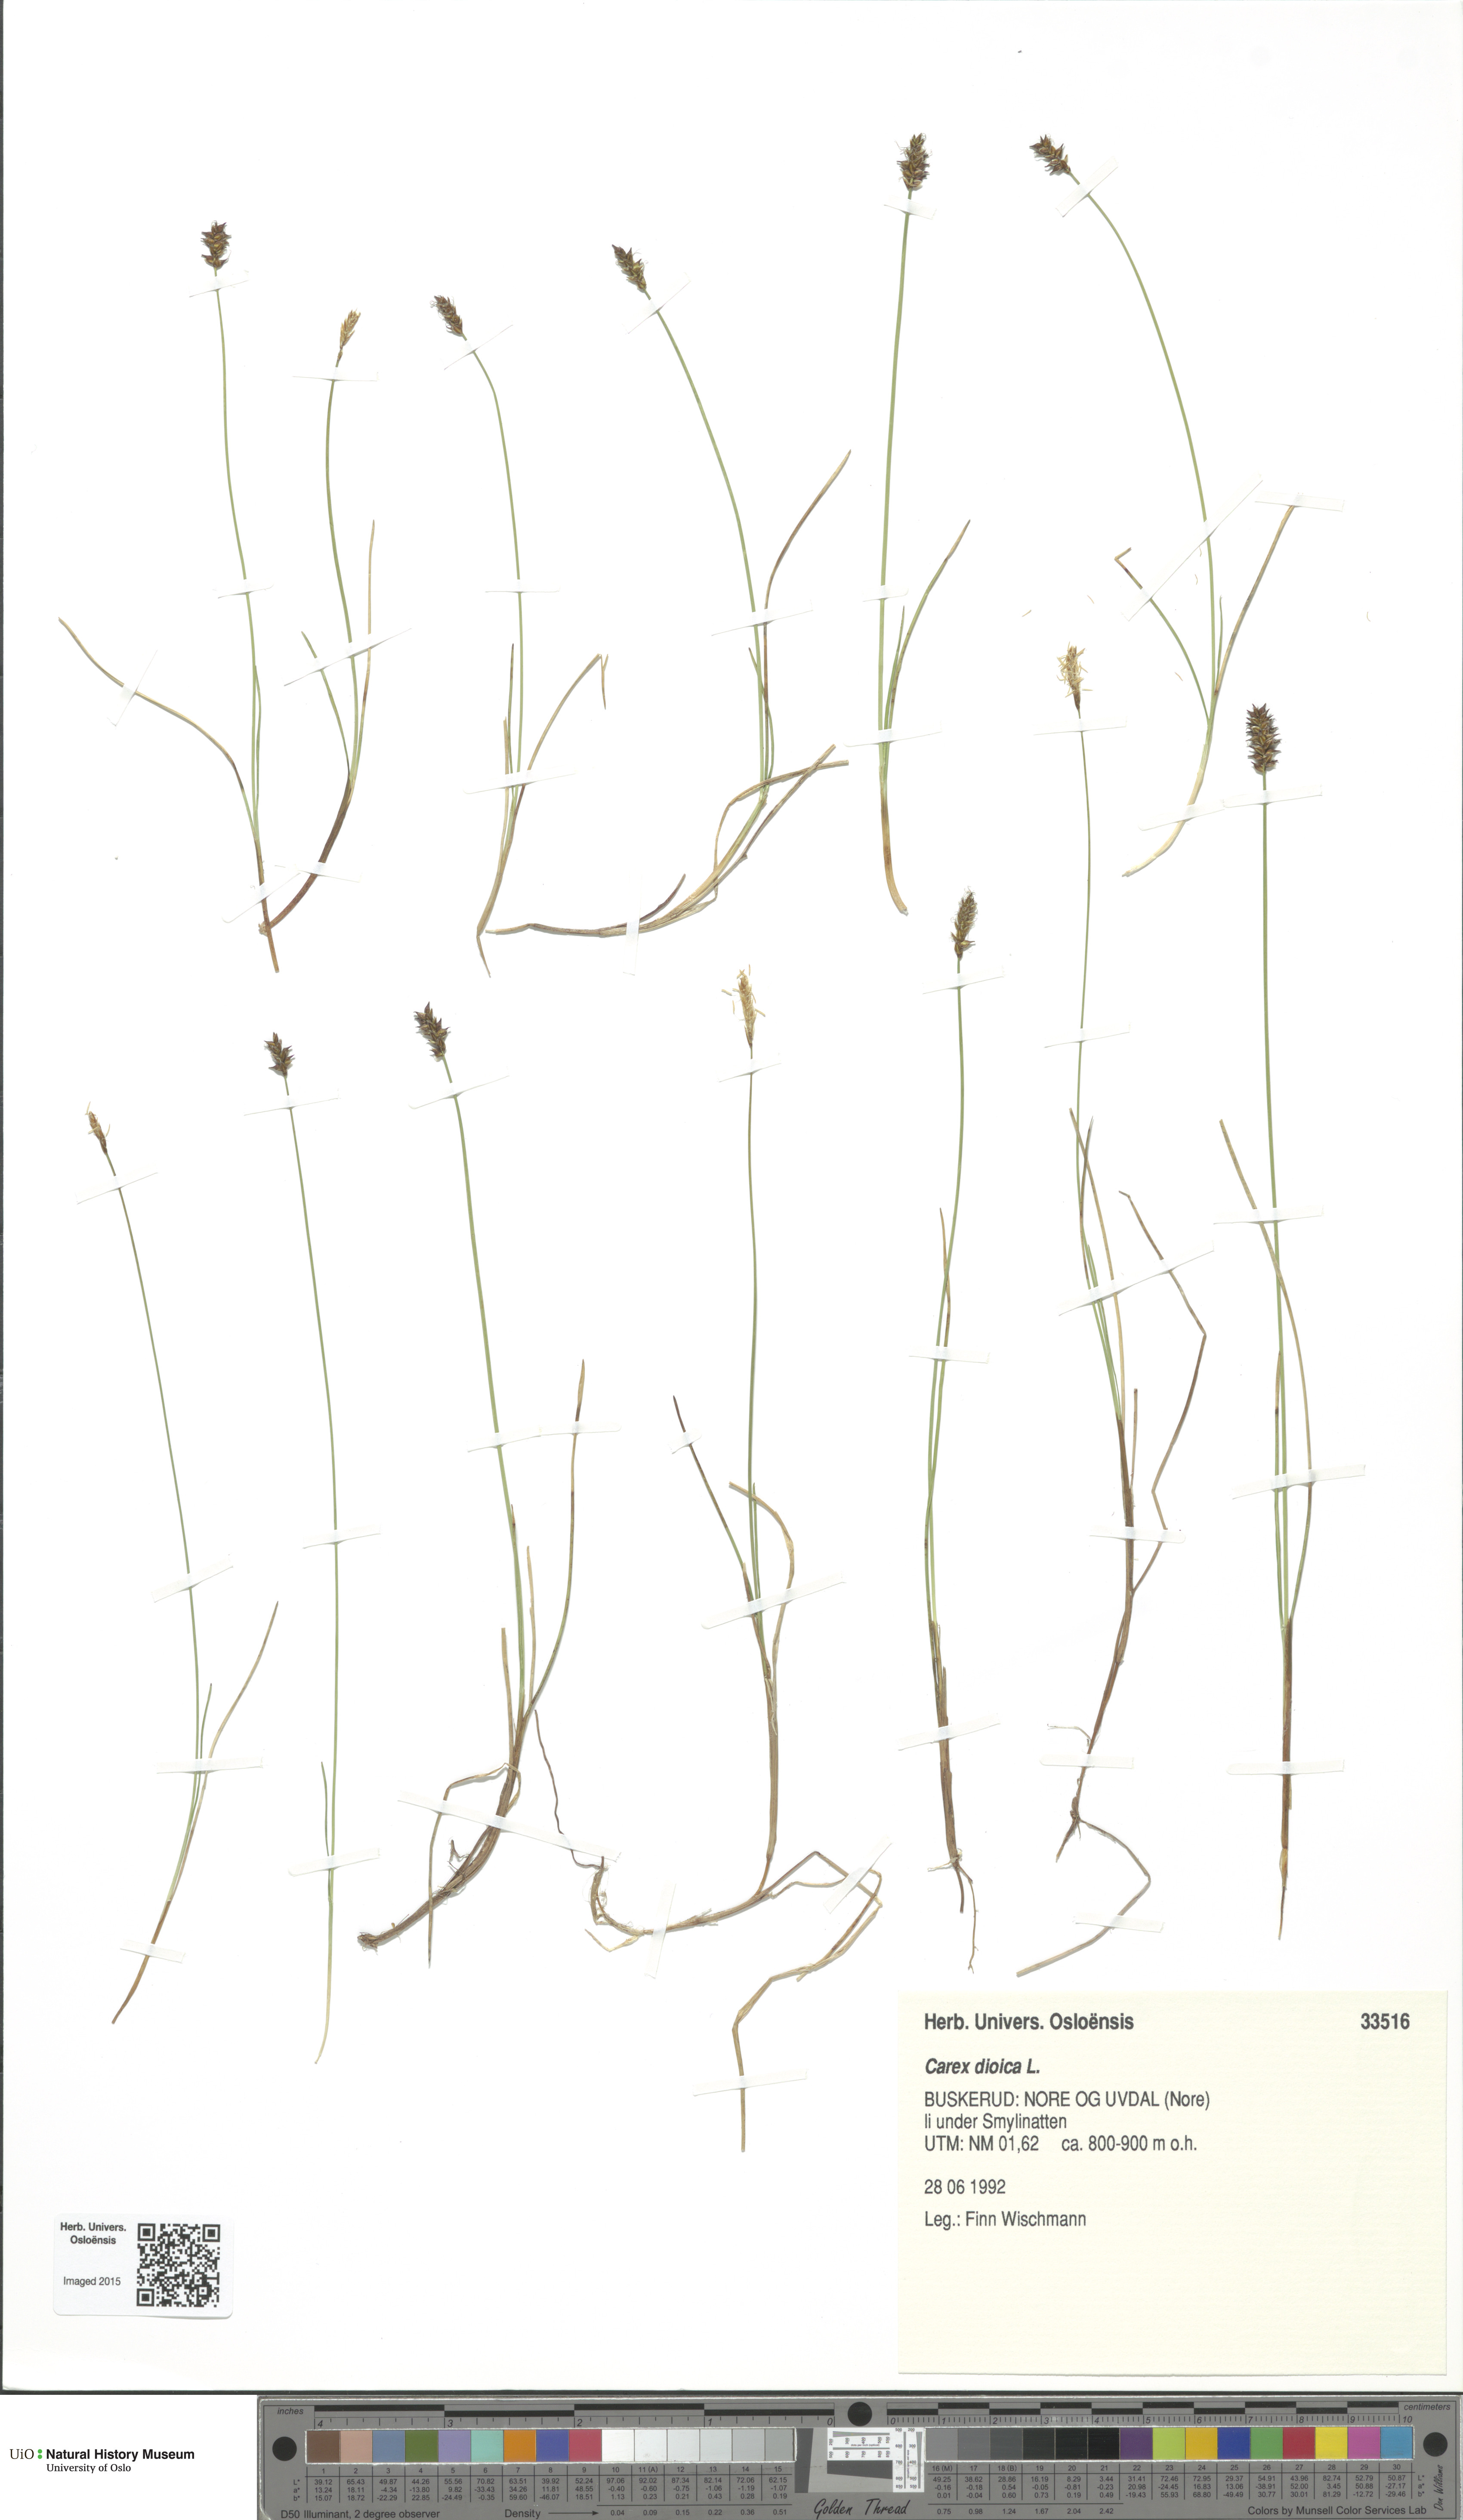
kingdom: Plantae
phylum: Tracheophyta
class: Liliopsida
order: Poales
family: Cyperaceae
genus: Carex
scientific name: Carex dioica
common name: Dioecious sedge
